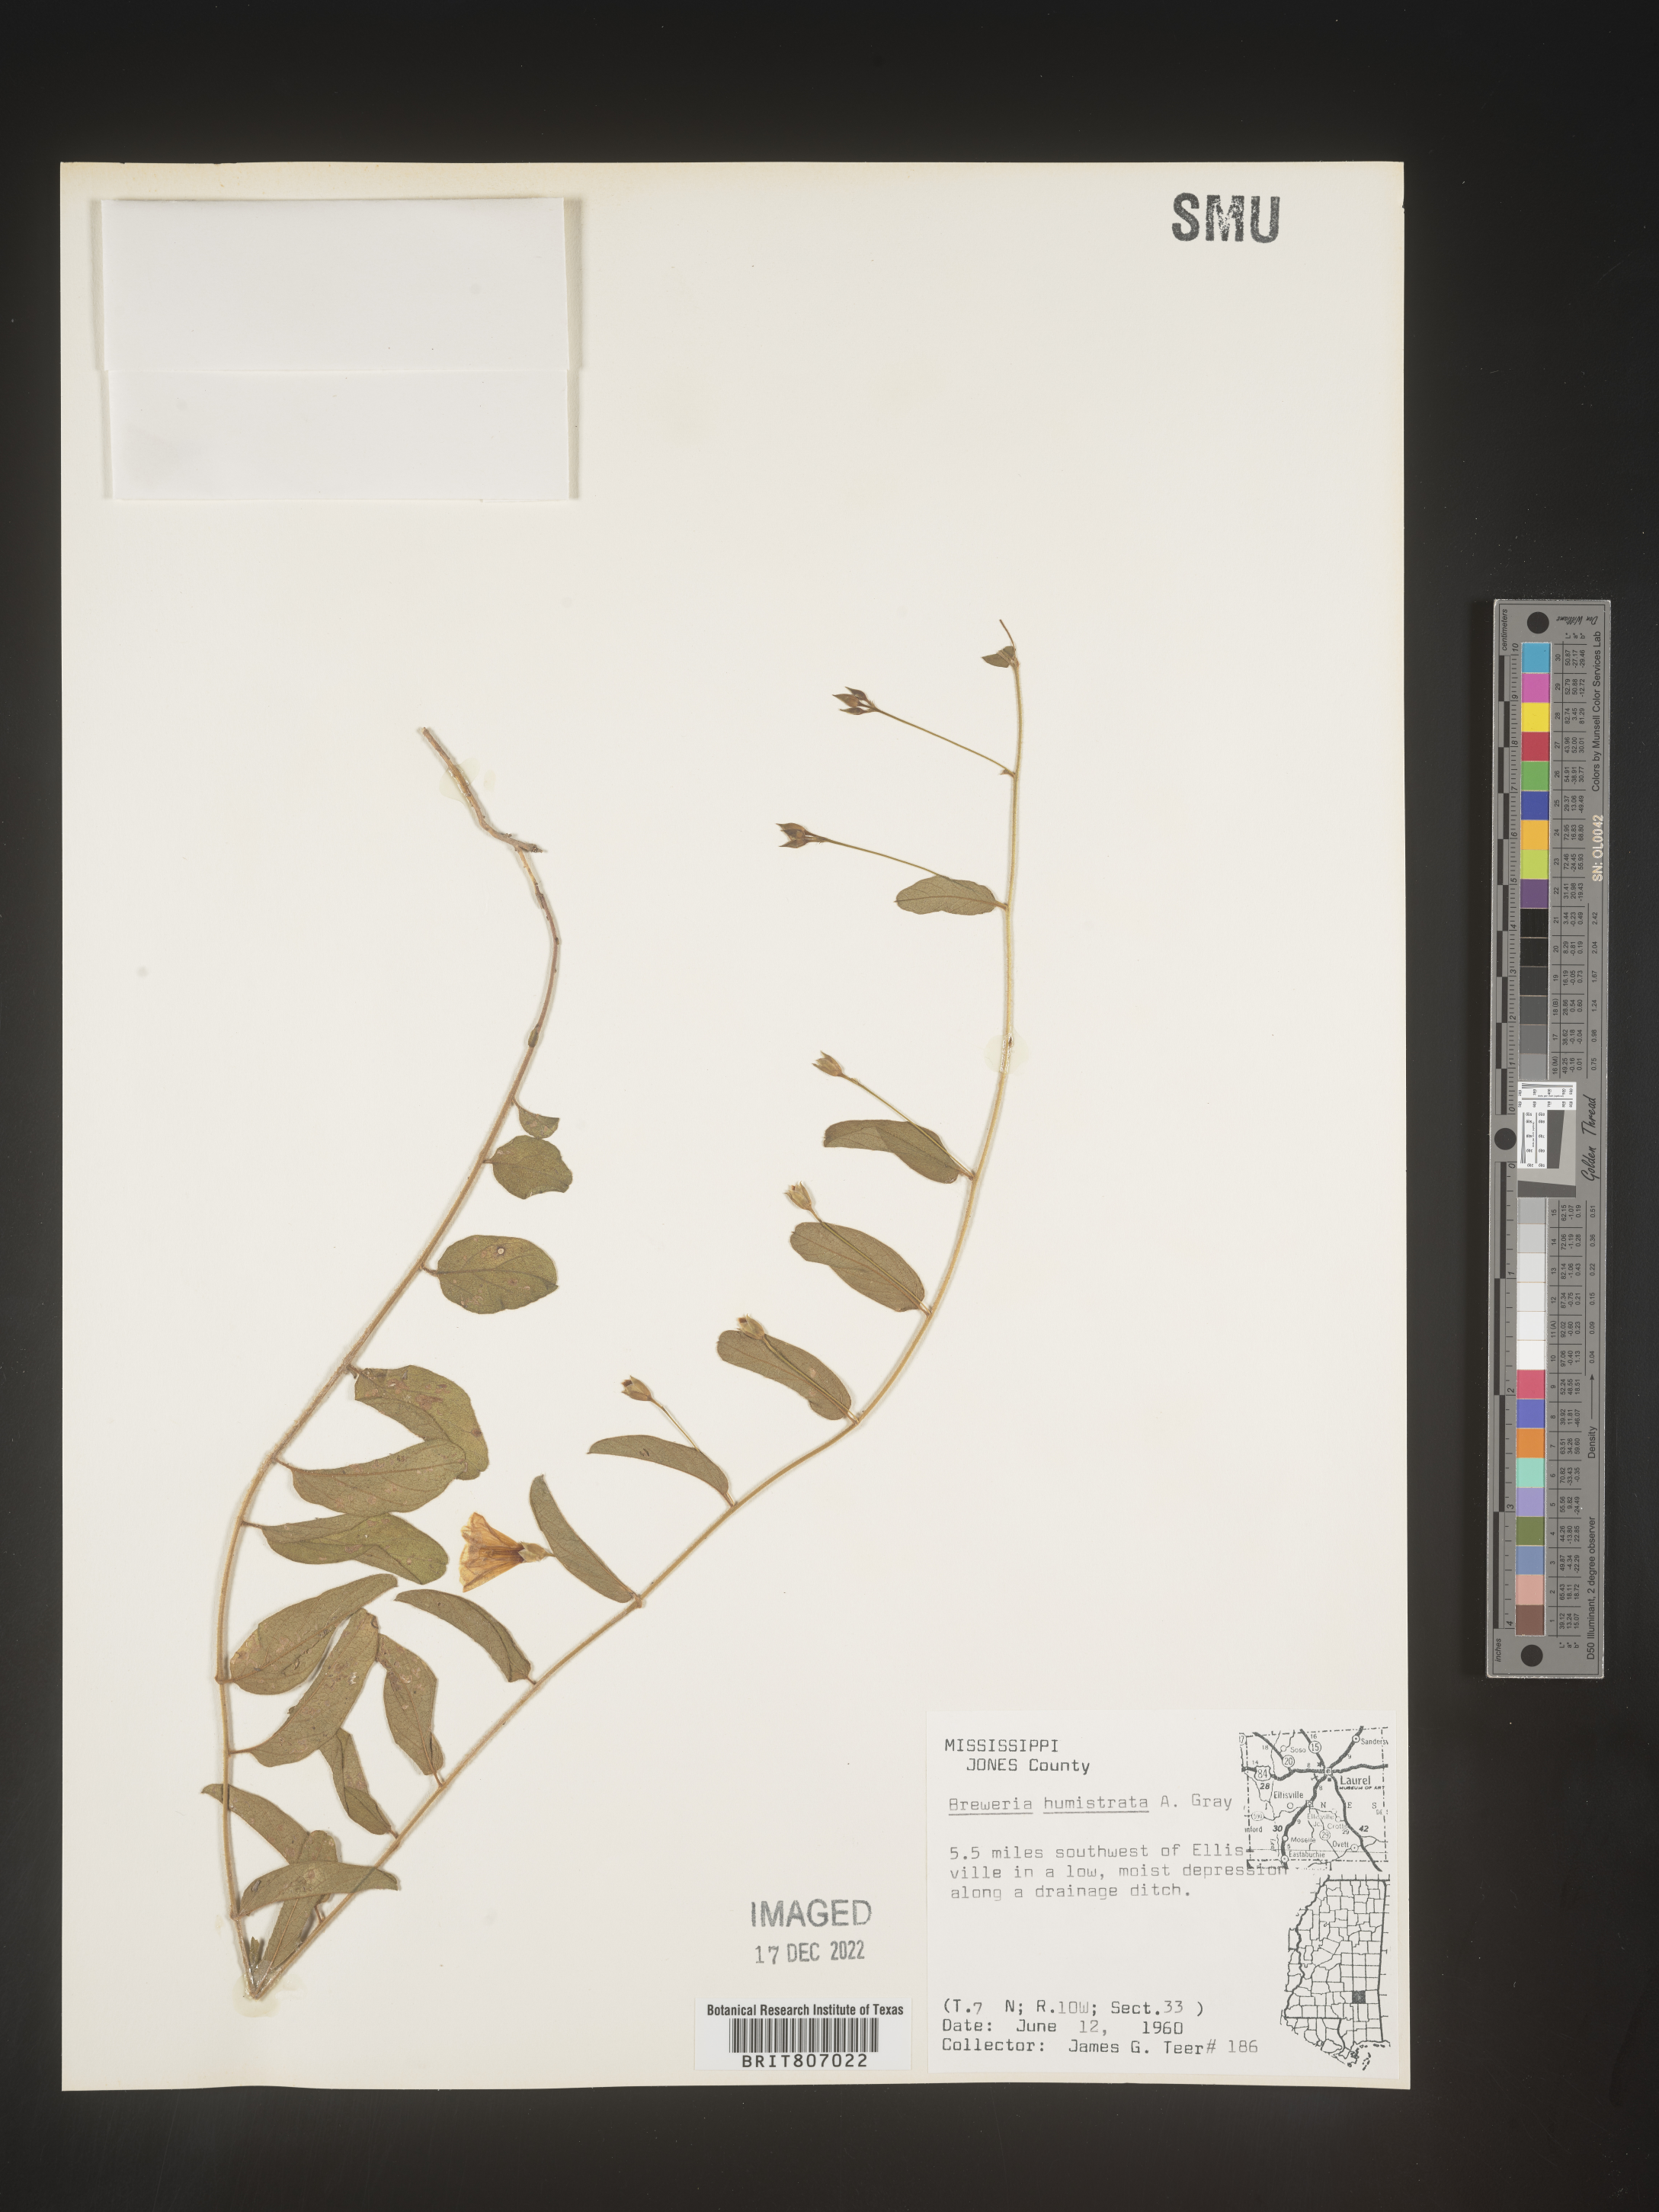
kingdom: Plantae
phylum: Tracheophyta
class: Magnoliopsida
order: Solanales
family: Convolvulaceae
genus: Stylisma
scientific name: Stylisma humistrata
